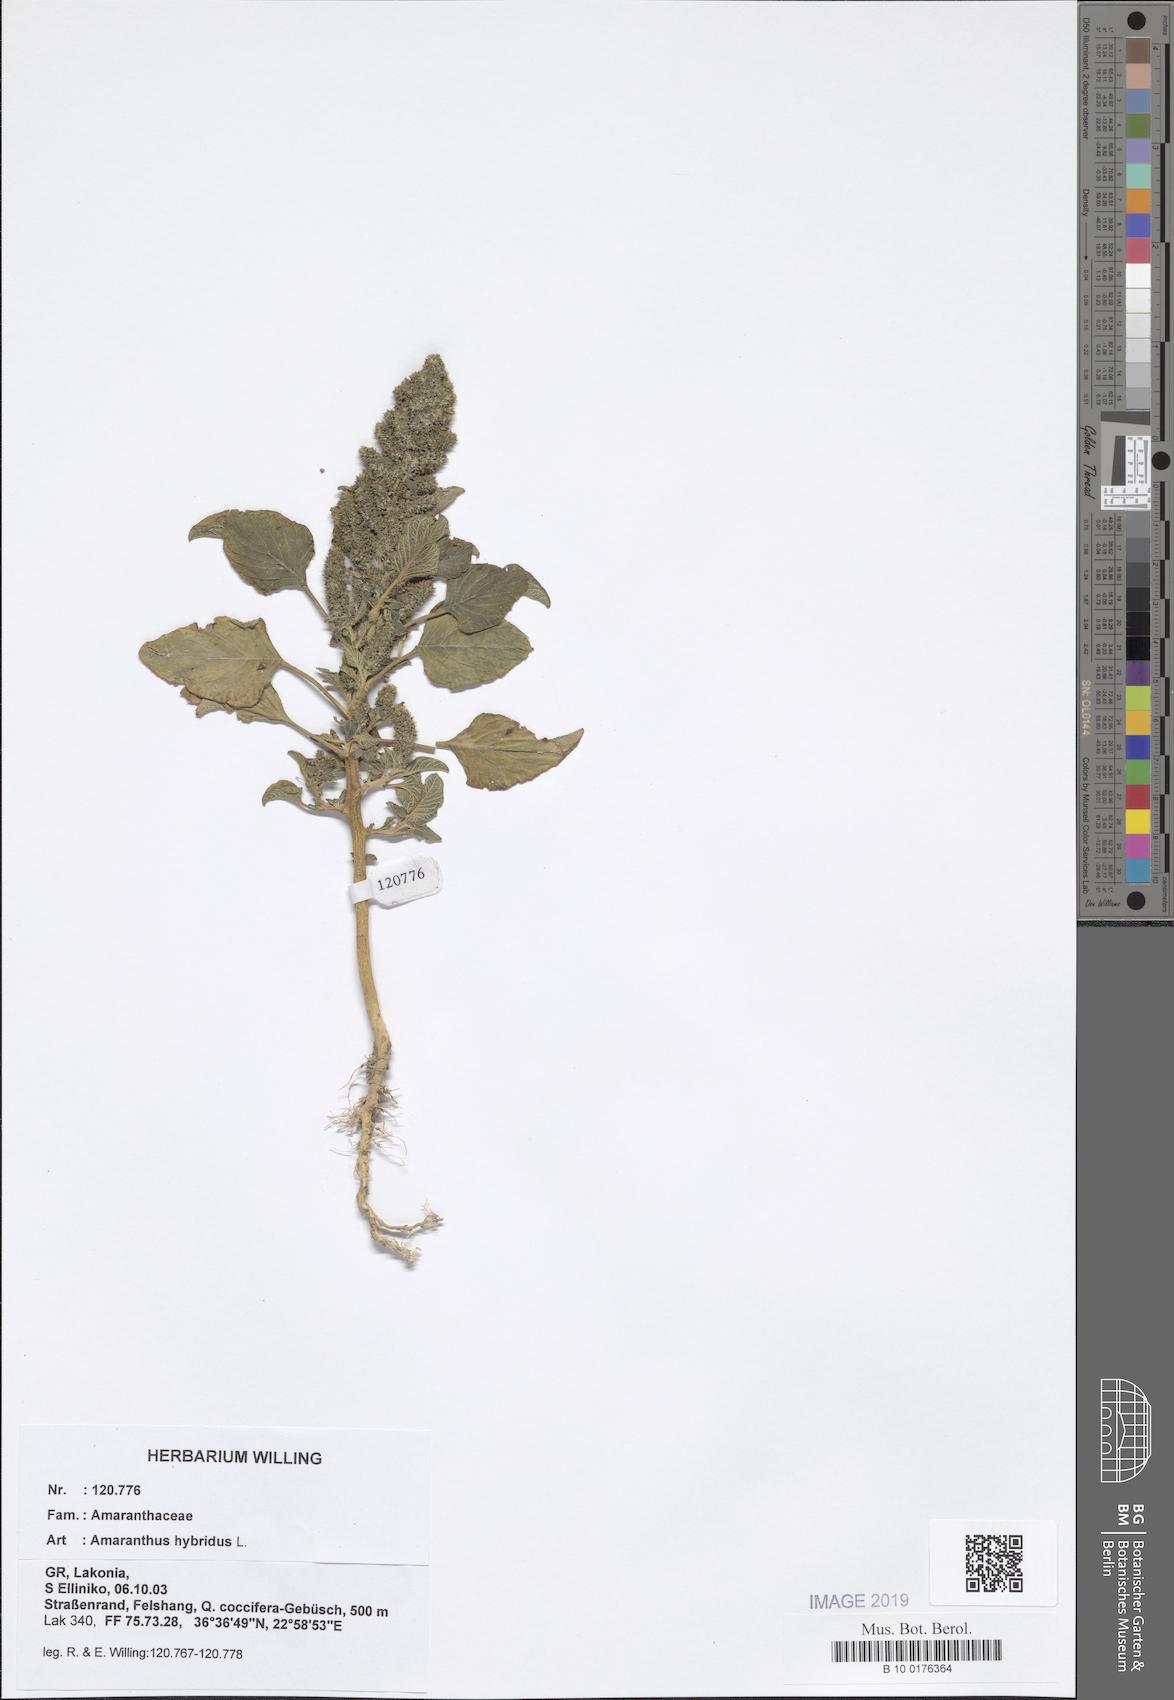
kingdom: Plantae
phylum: Tracheophyta
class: Magnoliopsida
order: Caryophyllales
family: Amaranthaceae
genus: Amaranthus
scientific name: Amaranthus hybridus
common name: Green amaranth
